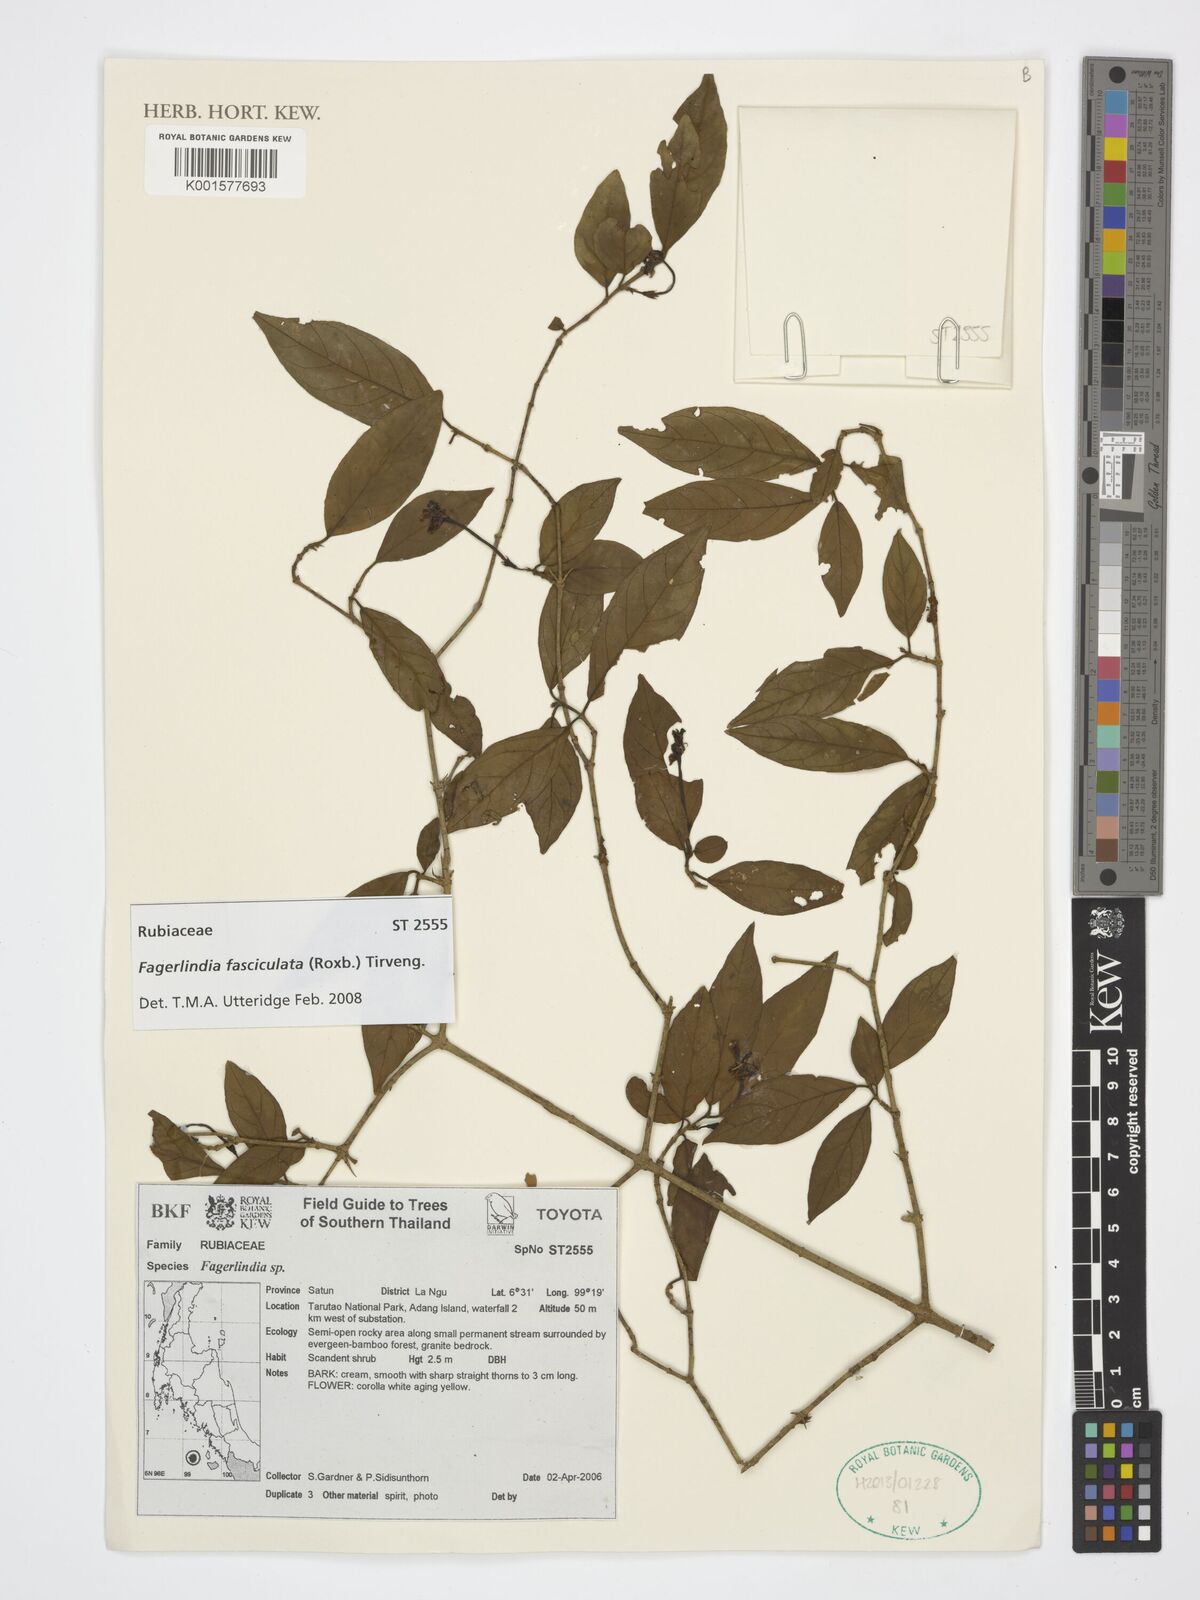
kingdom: Plantae
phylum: Tracheophyta
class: Magnoliopsida
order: Gentianales
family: Rubiaceae
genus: Benkara
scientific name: Benkara fasciculata
